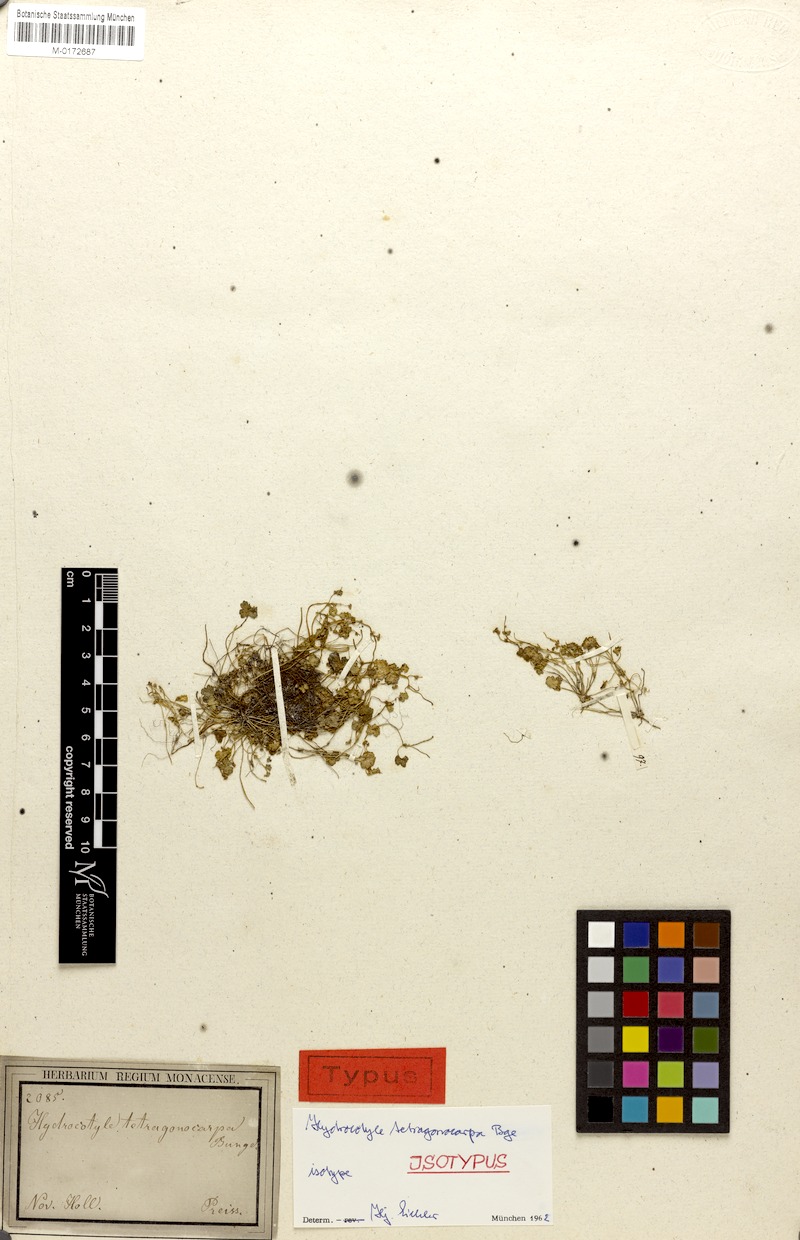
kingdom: Plantae
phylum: Tracheophyta
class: Magnoliopsida
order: Apiales
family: Araliaceae
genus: Hydrocotyle
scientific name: Hydrocotyle tetragonocarpa
